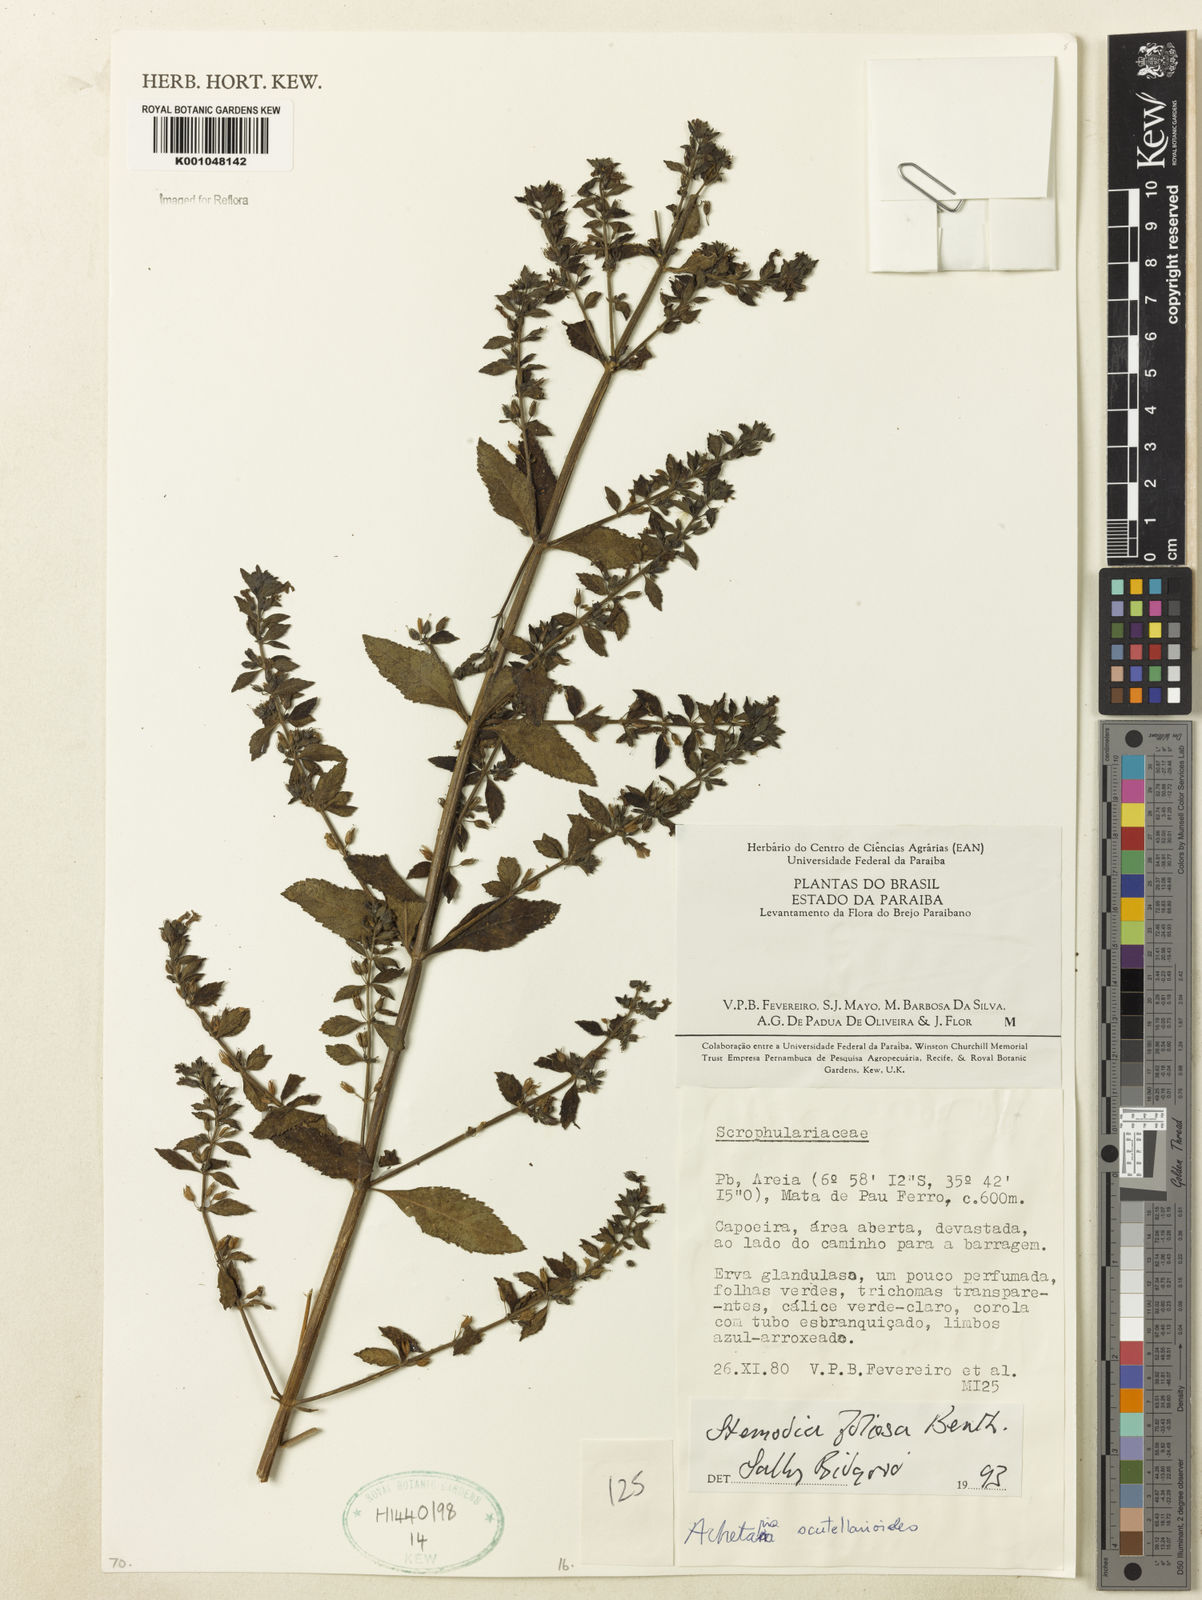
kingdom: Plantae
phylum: Tracheophyta
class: Magnoliopsida
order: Lamiales
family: Plantaginaceae
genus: Stemodia
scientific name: Stemodia foliosa
